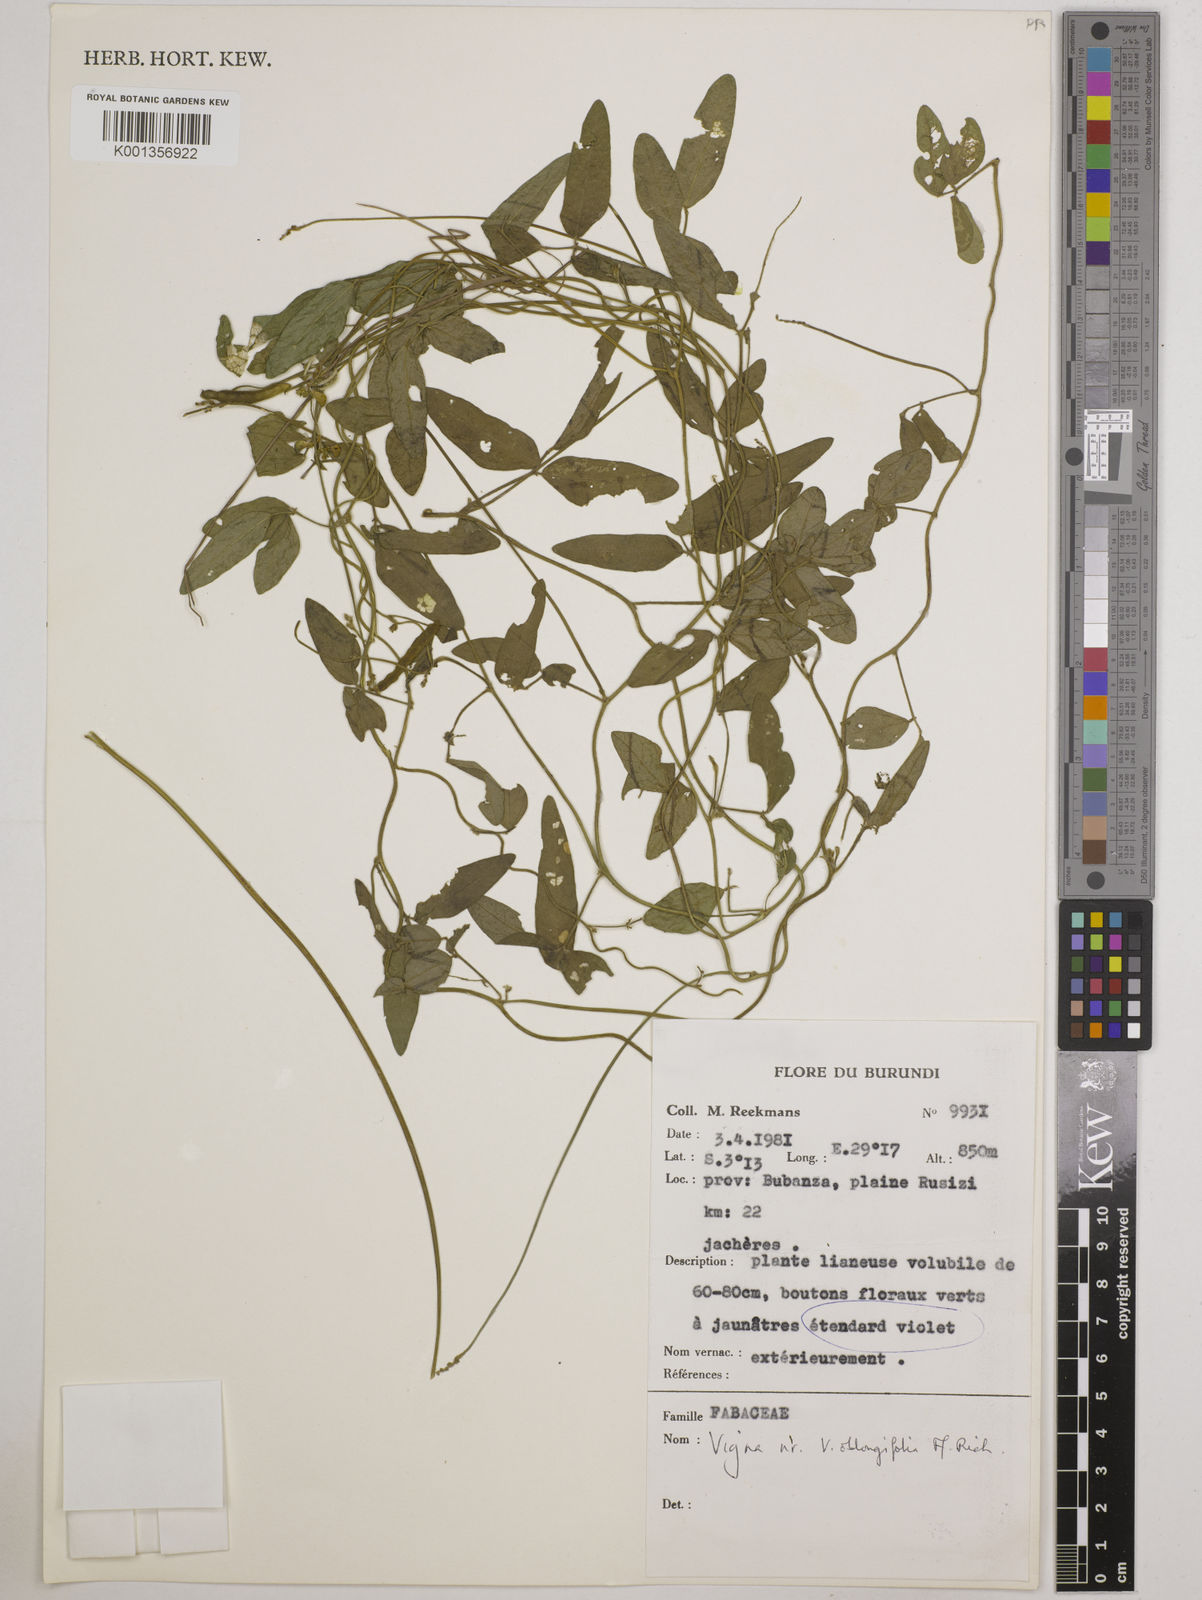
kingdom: Plantae
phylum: Tracheophyta
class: Magnoliopsida
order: Fabales
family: Fabaceae
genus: Vigna
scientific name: Vigna oblongifolia
